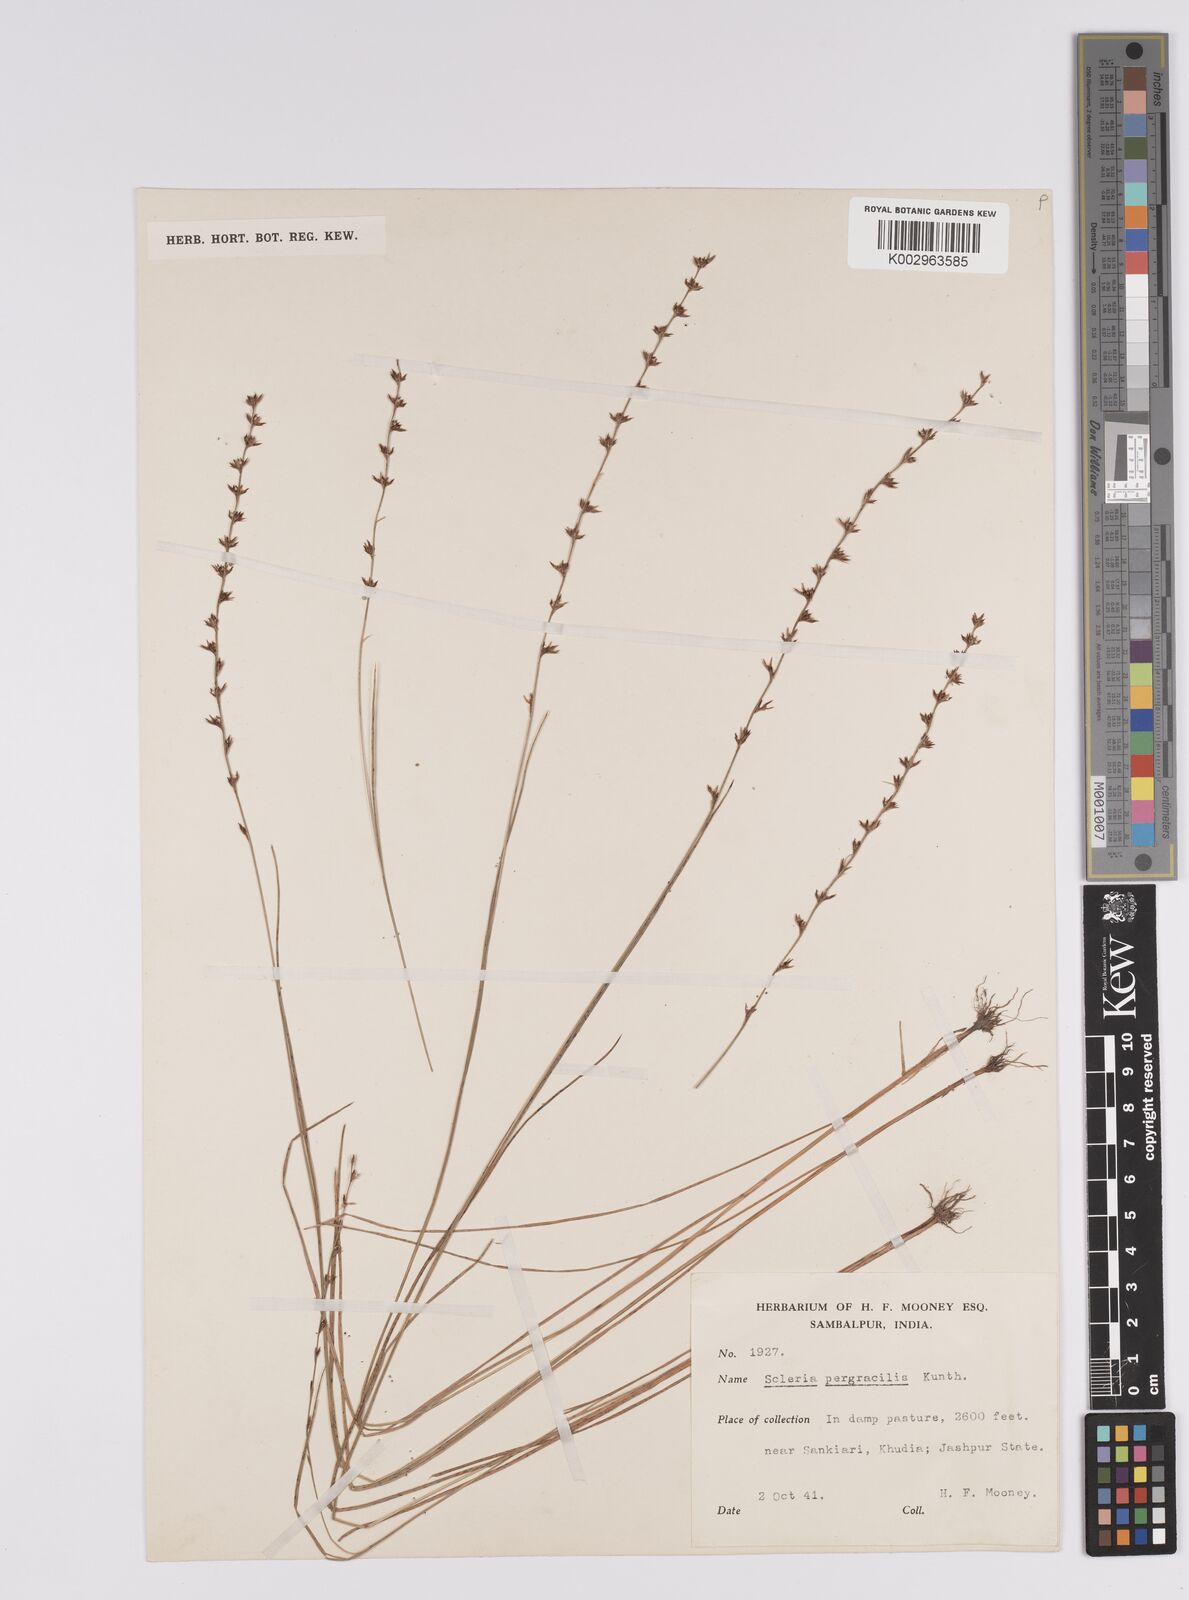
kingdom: Plantae
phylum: Tracheophyta
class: Liliopsida
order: Poales
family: Cyperaceae
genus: Scleria
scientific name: Scleria pergracilis
